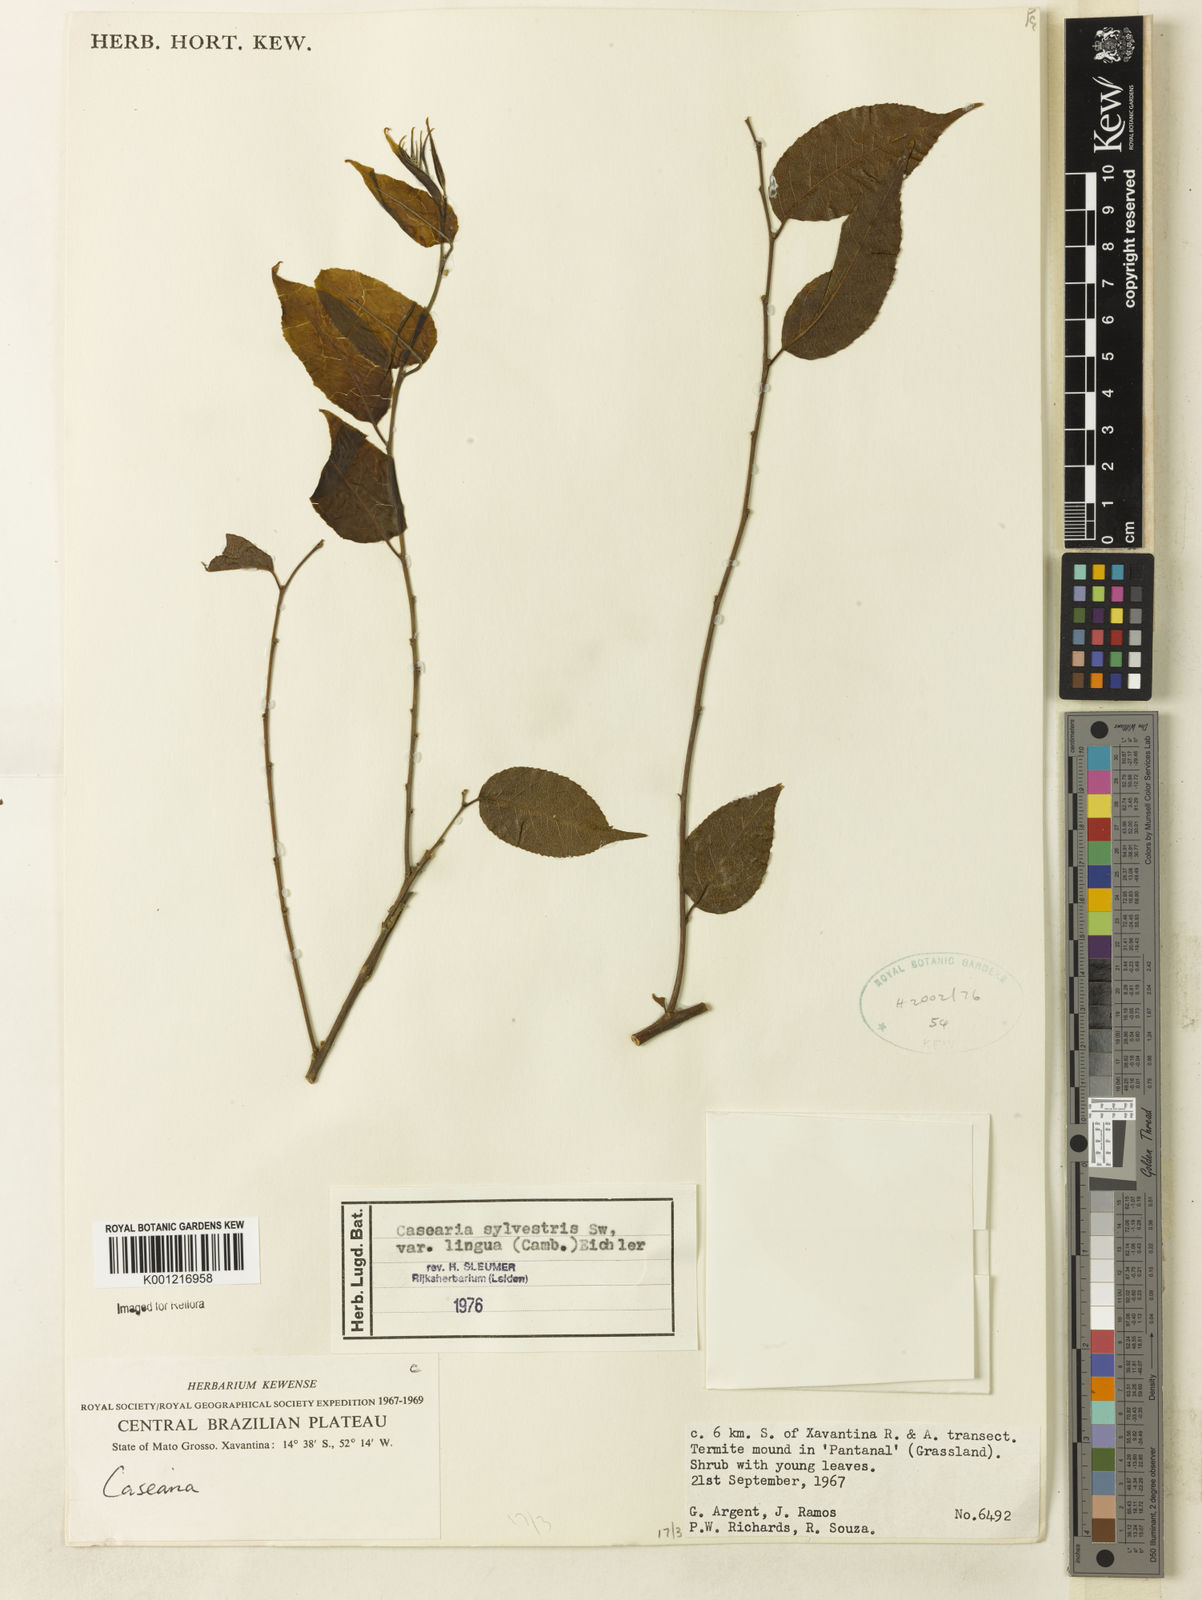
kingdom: Plantae
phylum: Tracheophyta
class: Magnoliopsida
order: Malpighiales
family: Salicaceae
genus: Casearia
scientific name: Casearia sylvestris
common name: Wild sage
